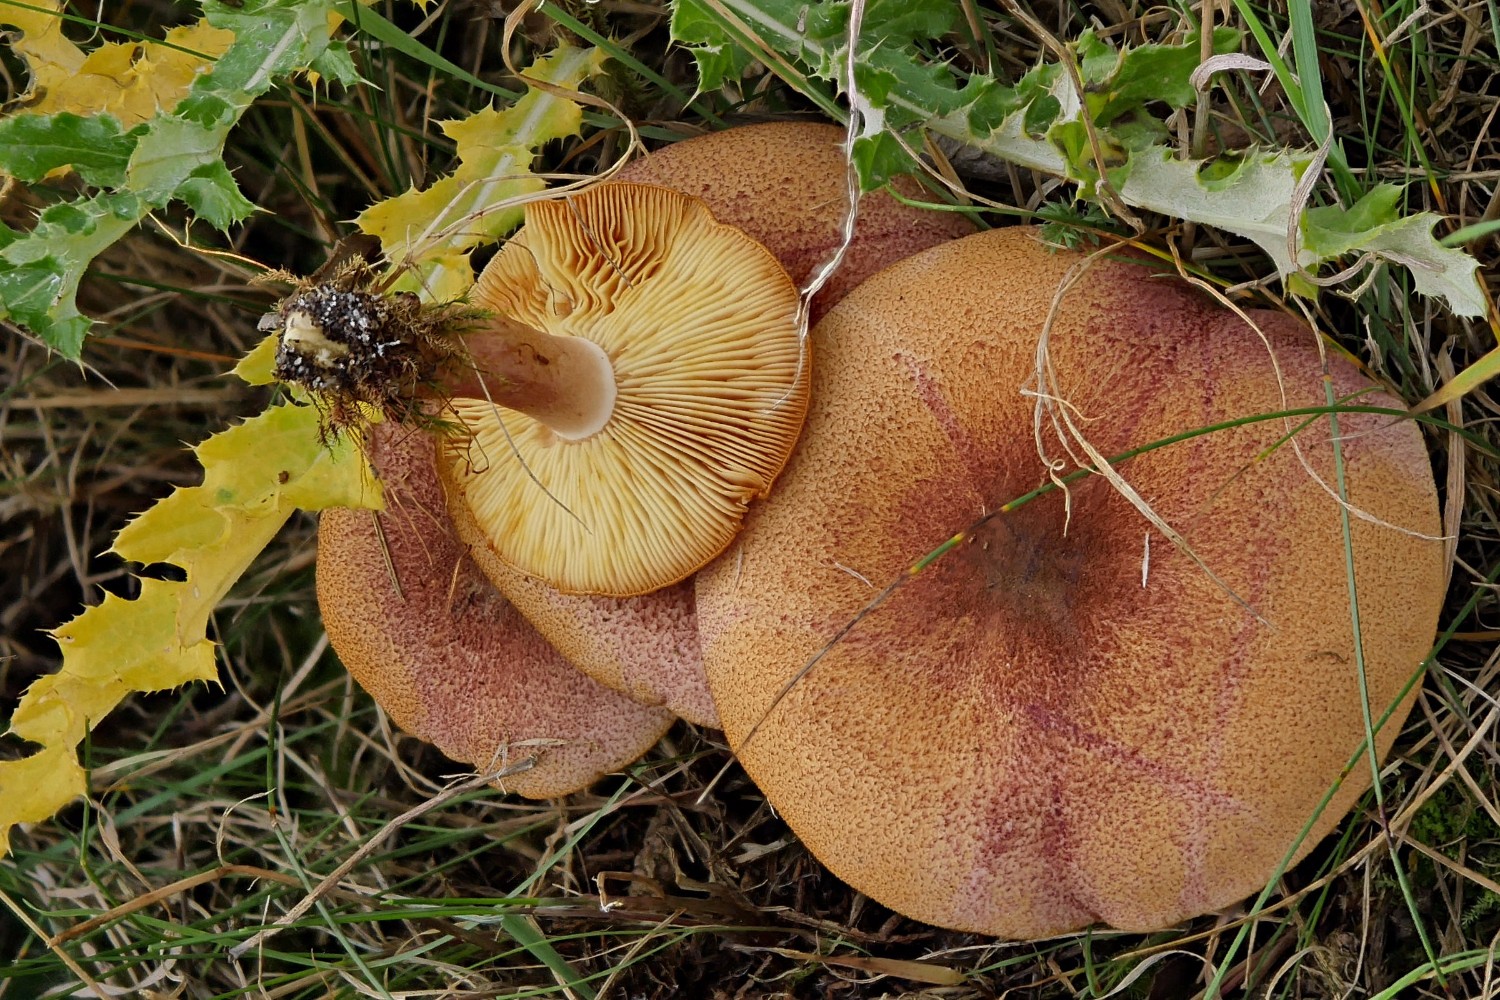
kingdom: Fungi
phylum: Basidiomycota
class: Agaricomycetes
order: Agaricales
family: Tricholomataceae
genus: Tricholomopsis
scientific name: Tricholomopsis rutilans
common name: purpur-væbnerhat
